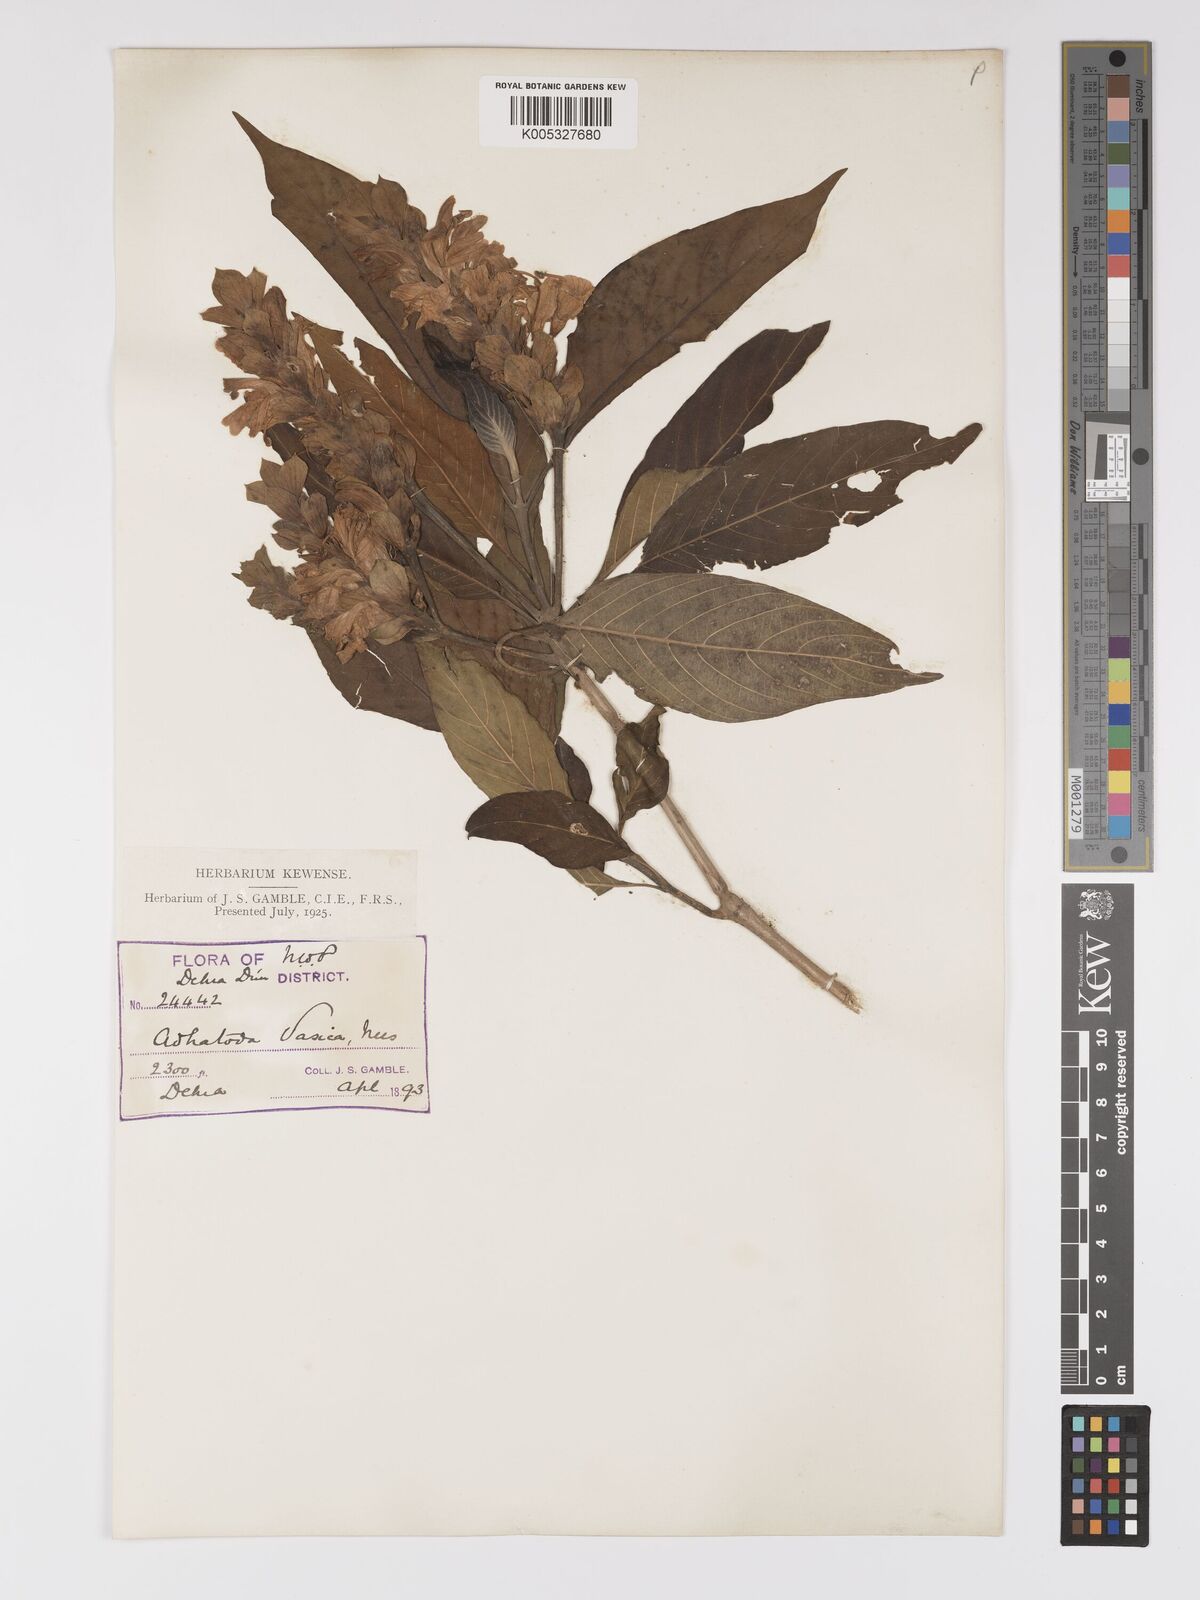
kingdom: Plantae
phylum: Tracheophyta
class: Magnoliopsida
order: Lamiales
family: Acanthaceae
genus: Justicia
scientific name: Justicia
